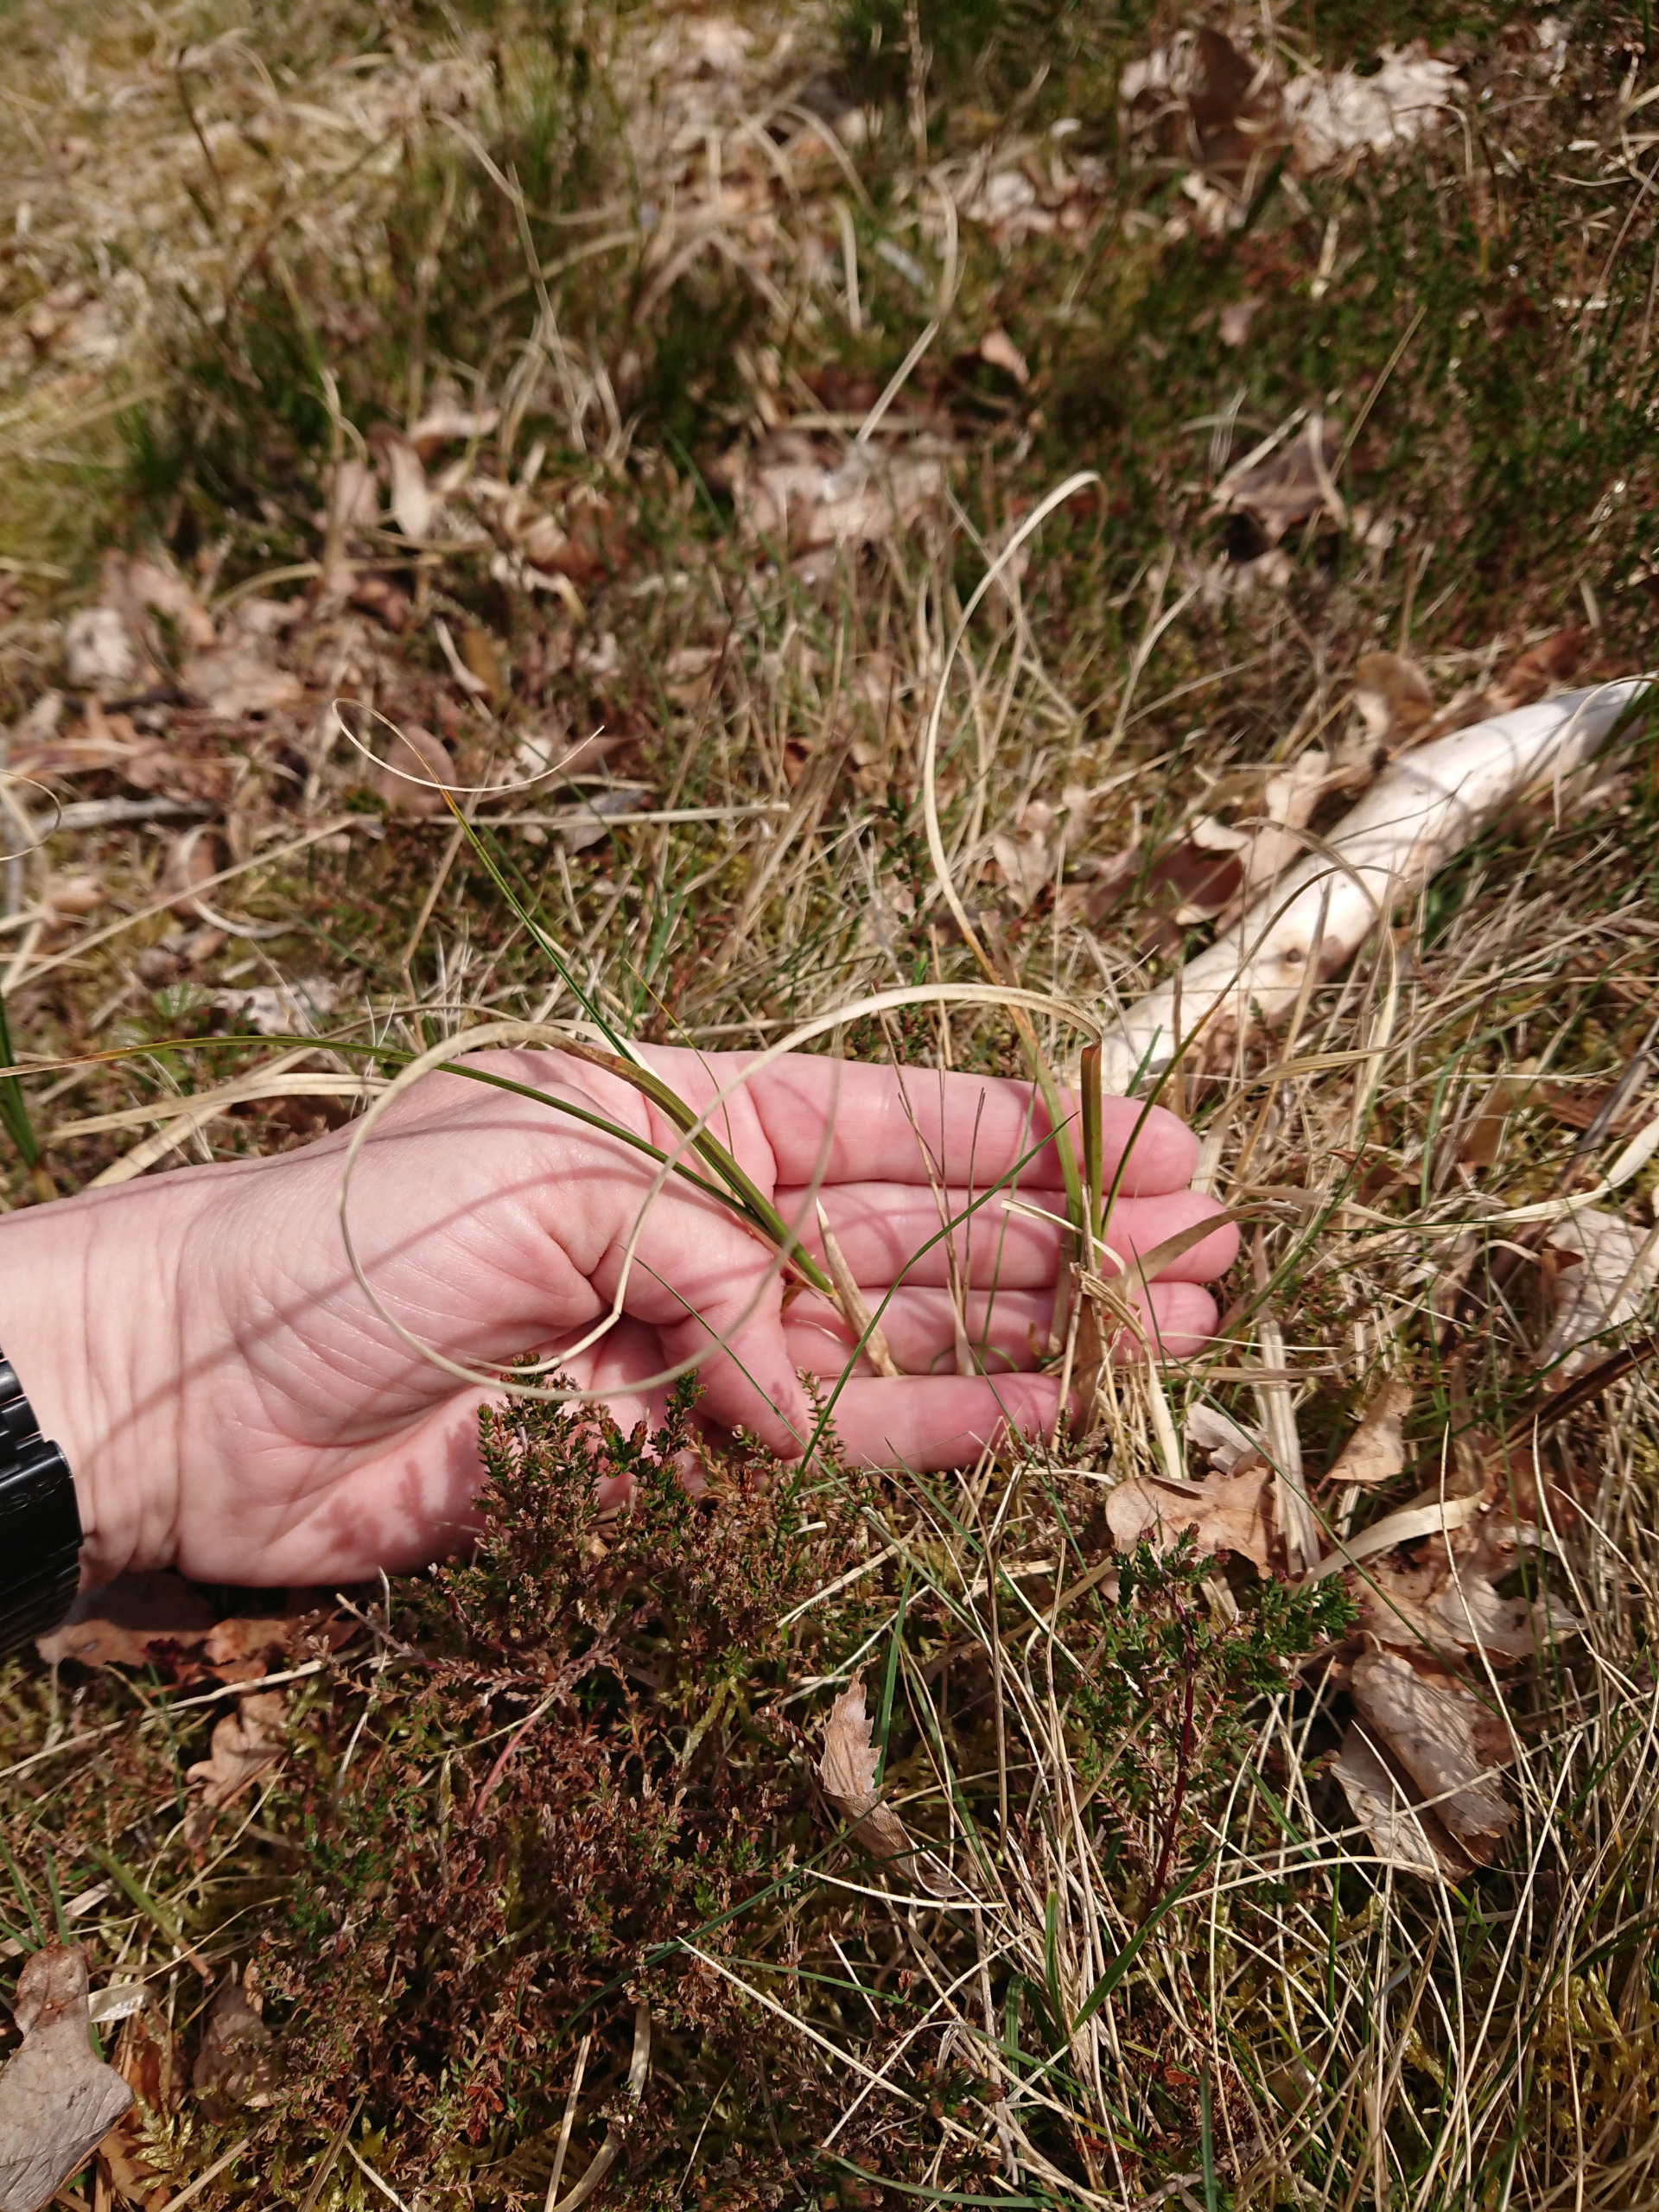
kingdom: Plantae
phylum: Tracheophyta
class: Liliopsida
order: Poales
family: Cyperaceae
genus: Carex
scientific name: Carex arenaria
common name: Sand-star
